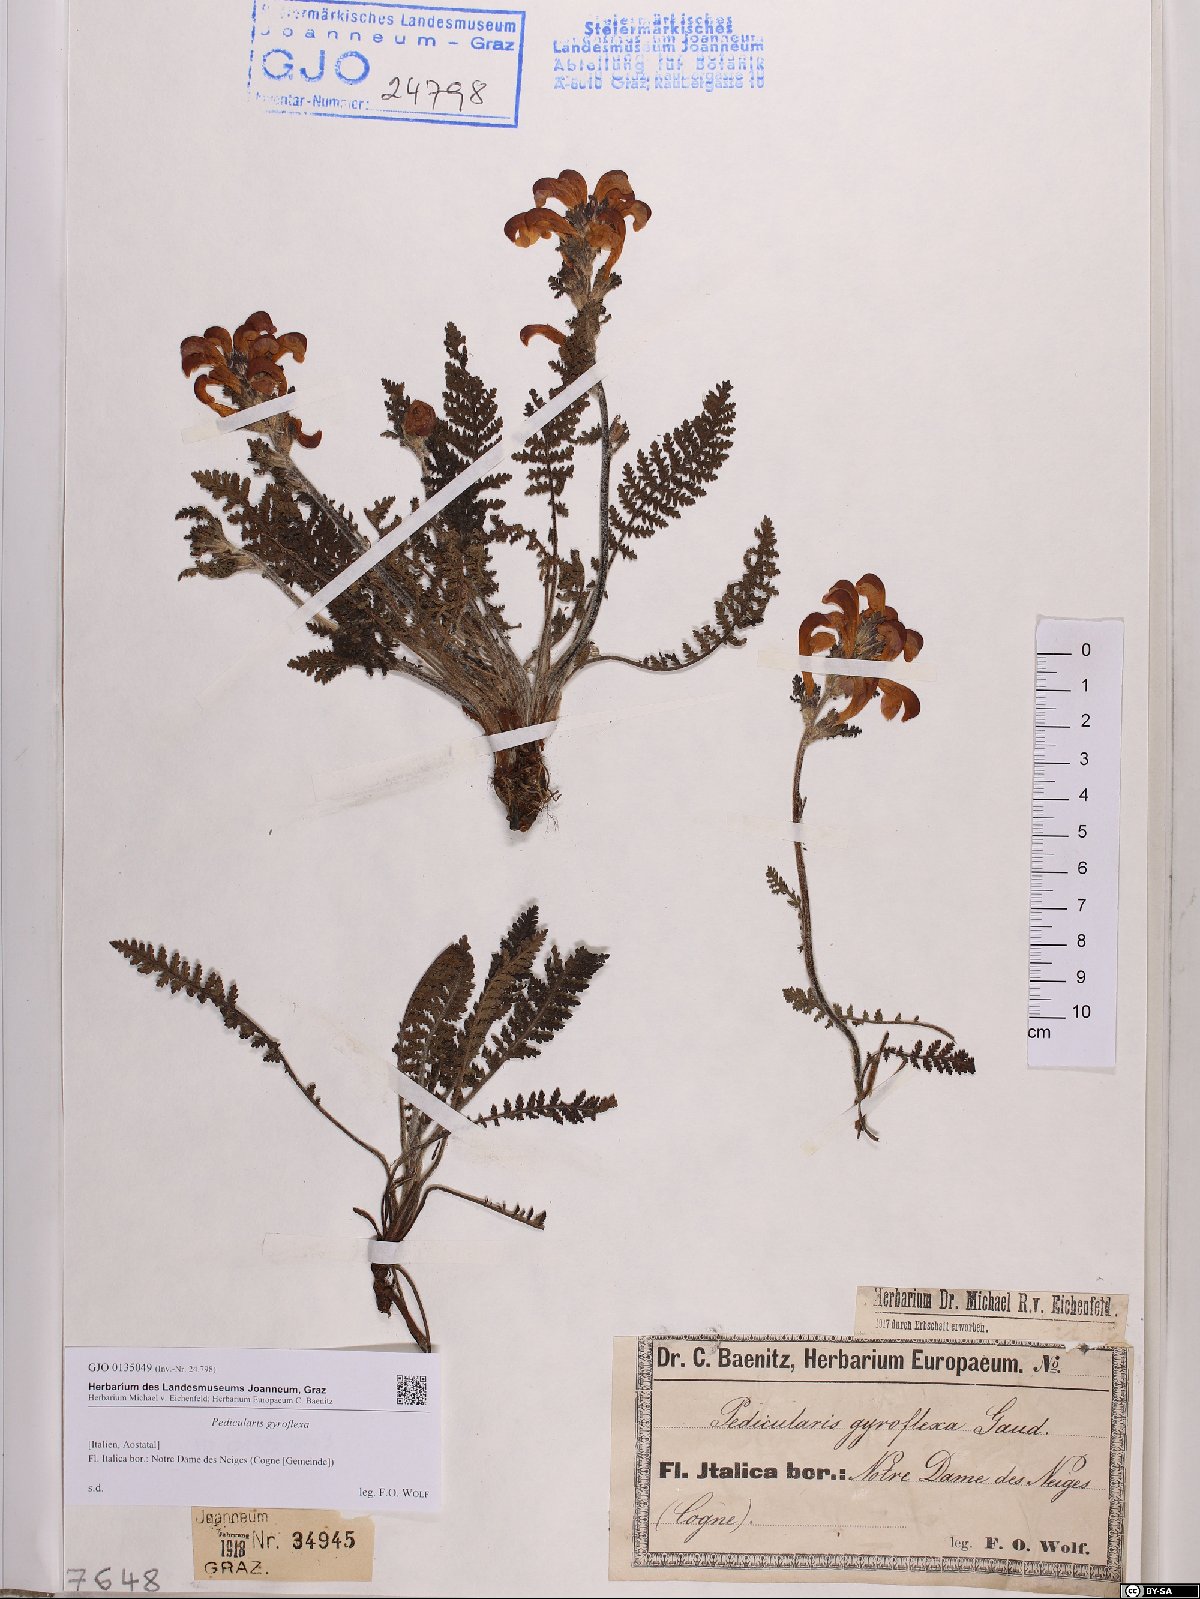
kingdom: Plantae
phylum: Tracheophyta
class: Magnoliopsida
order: Lamiales
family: Orobanchaceae
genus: Pedicularis
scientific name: Pedicularis gyroflexa
